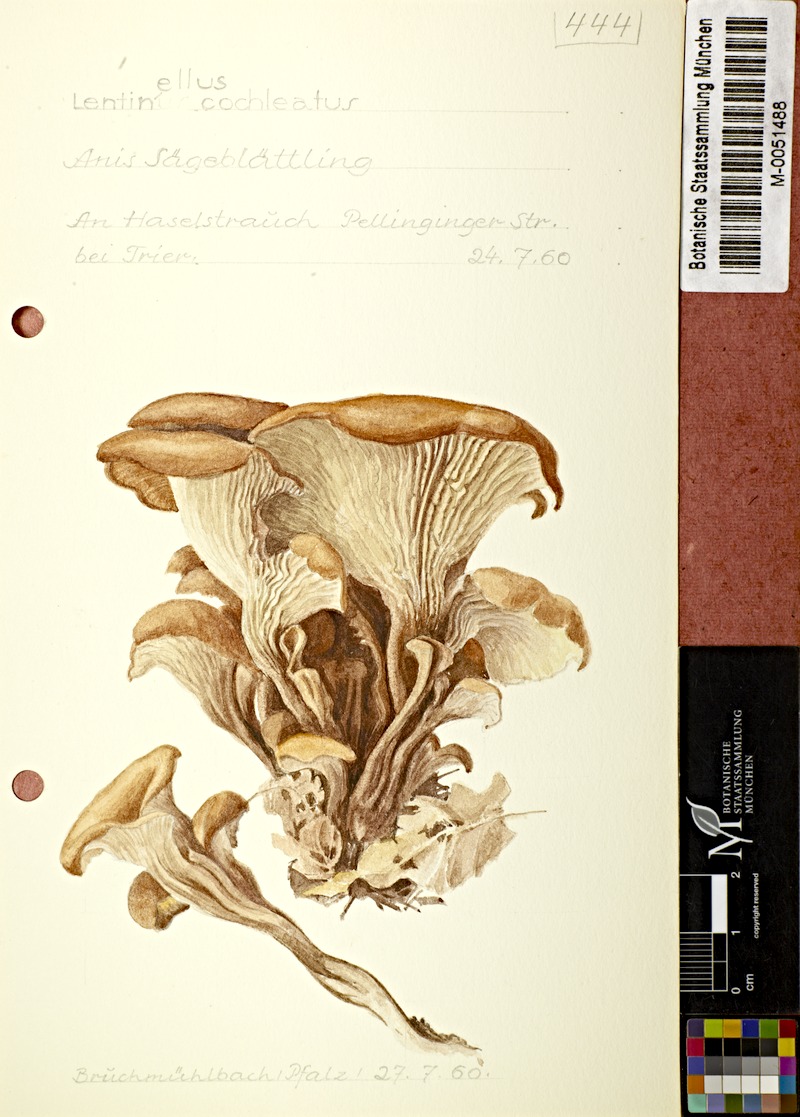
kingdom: Fungi
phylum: Basidiomycota
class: Agaricomycetes
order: Russulales
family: Auriscalpiaceae
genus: Lentinellus
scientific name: Lentinellus cochleatus
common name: Aniseed cockleshell
